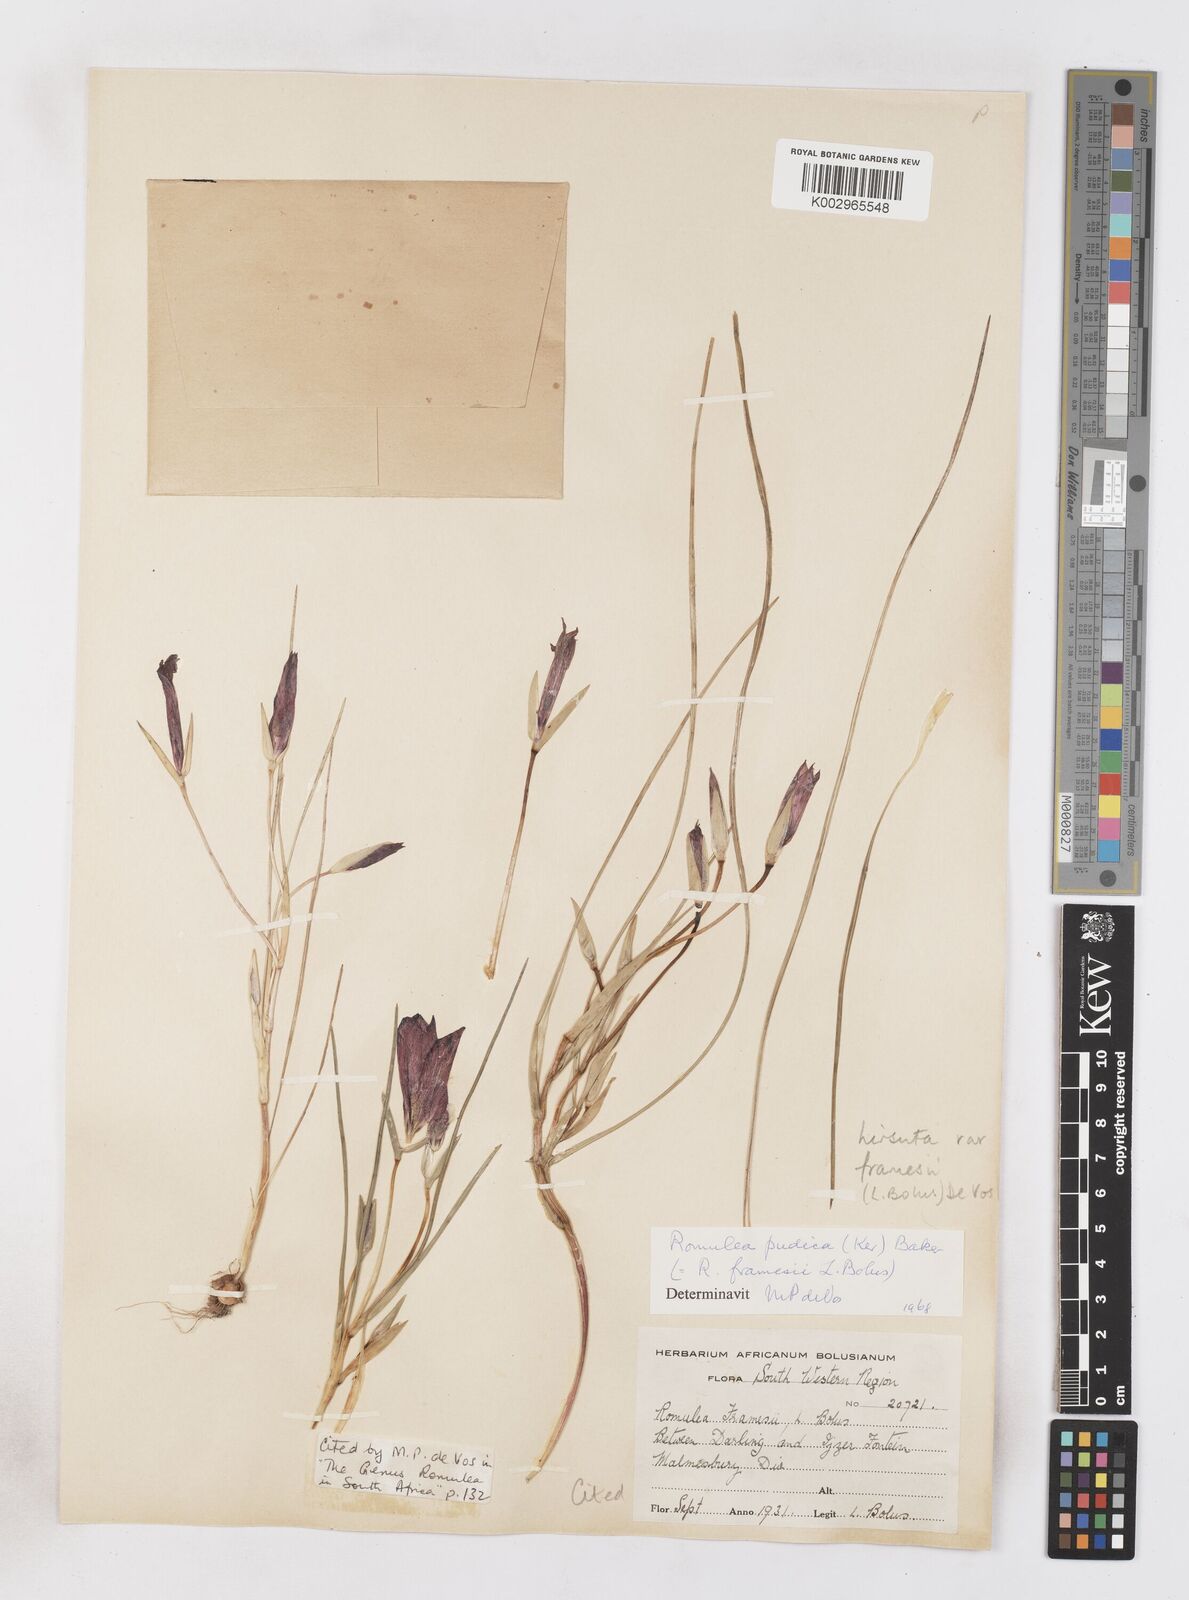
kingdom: Plantae
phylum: Tracheophyta
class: Liliopsida
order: Asparagales
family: Iridaceae
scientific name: Iridaceae
